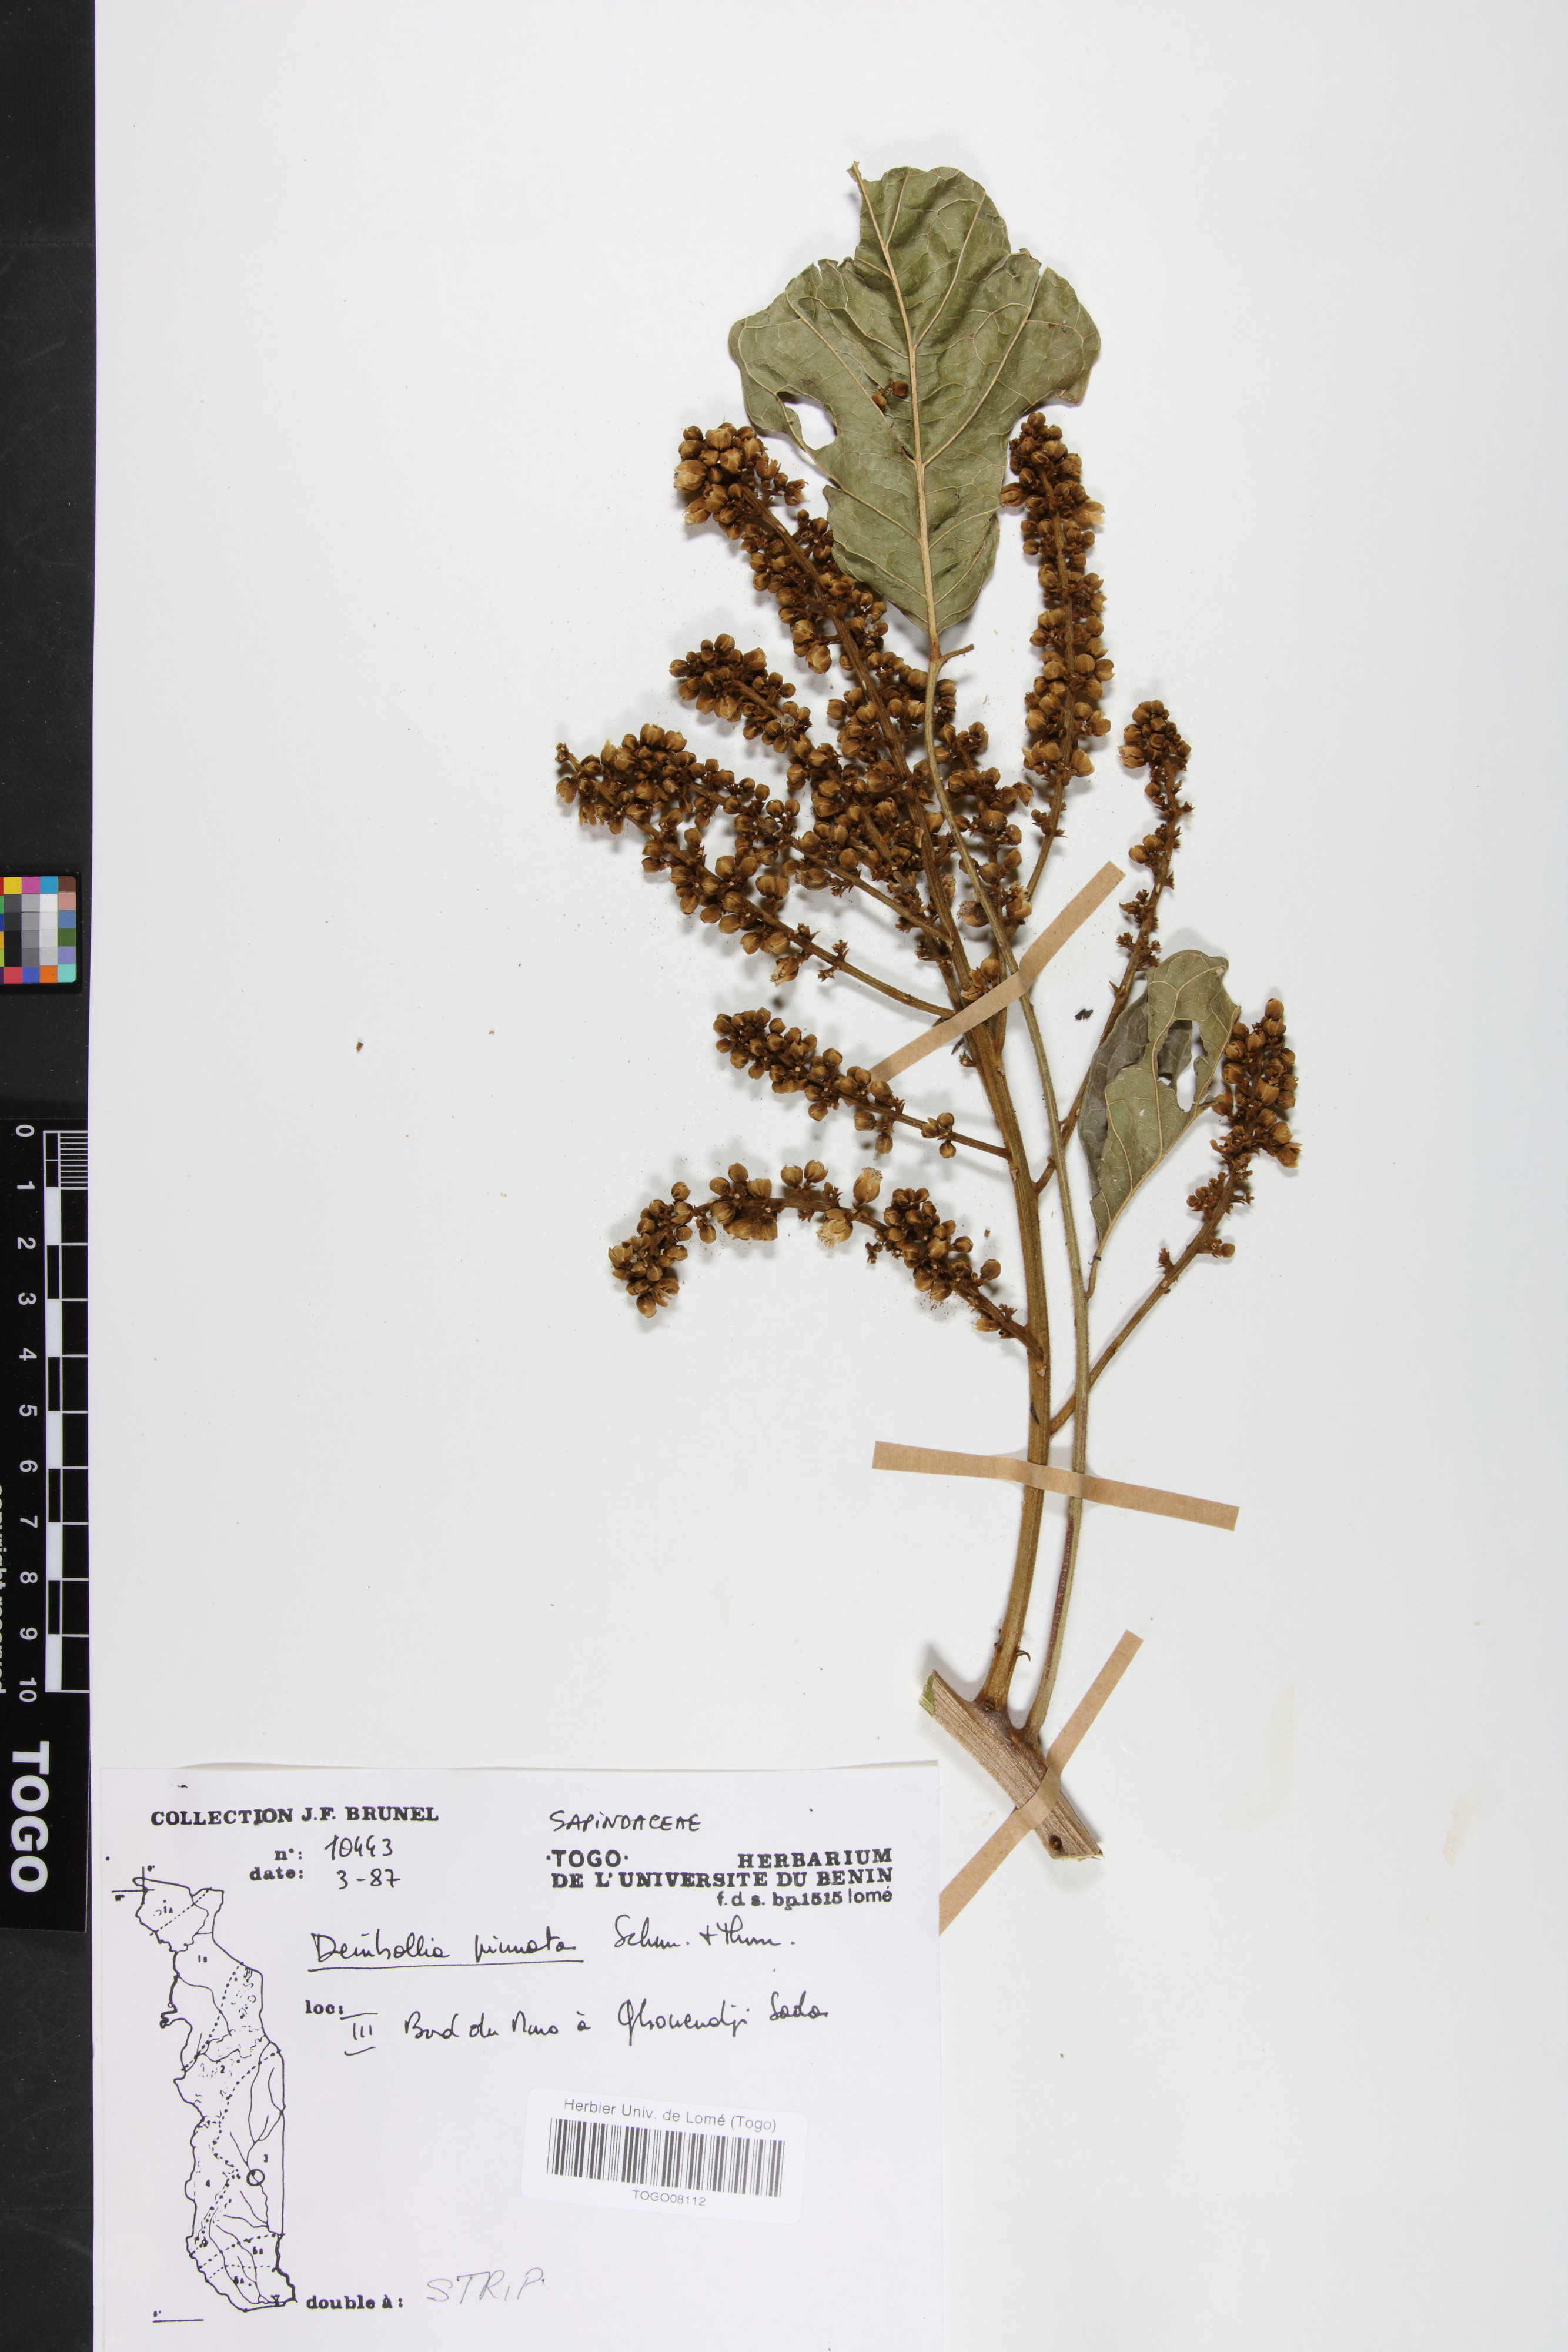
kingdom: Plantae
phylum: Tracheophyta
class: Magnoliopsida
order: Sapindales
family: Sapindaceae
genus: Deinbollia
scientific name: Deinbollia pinnata
